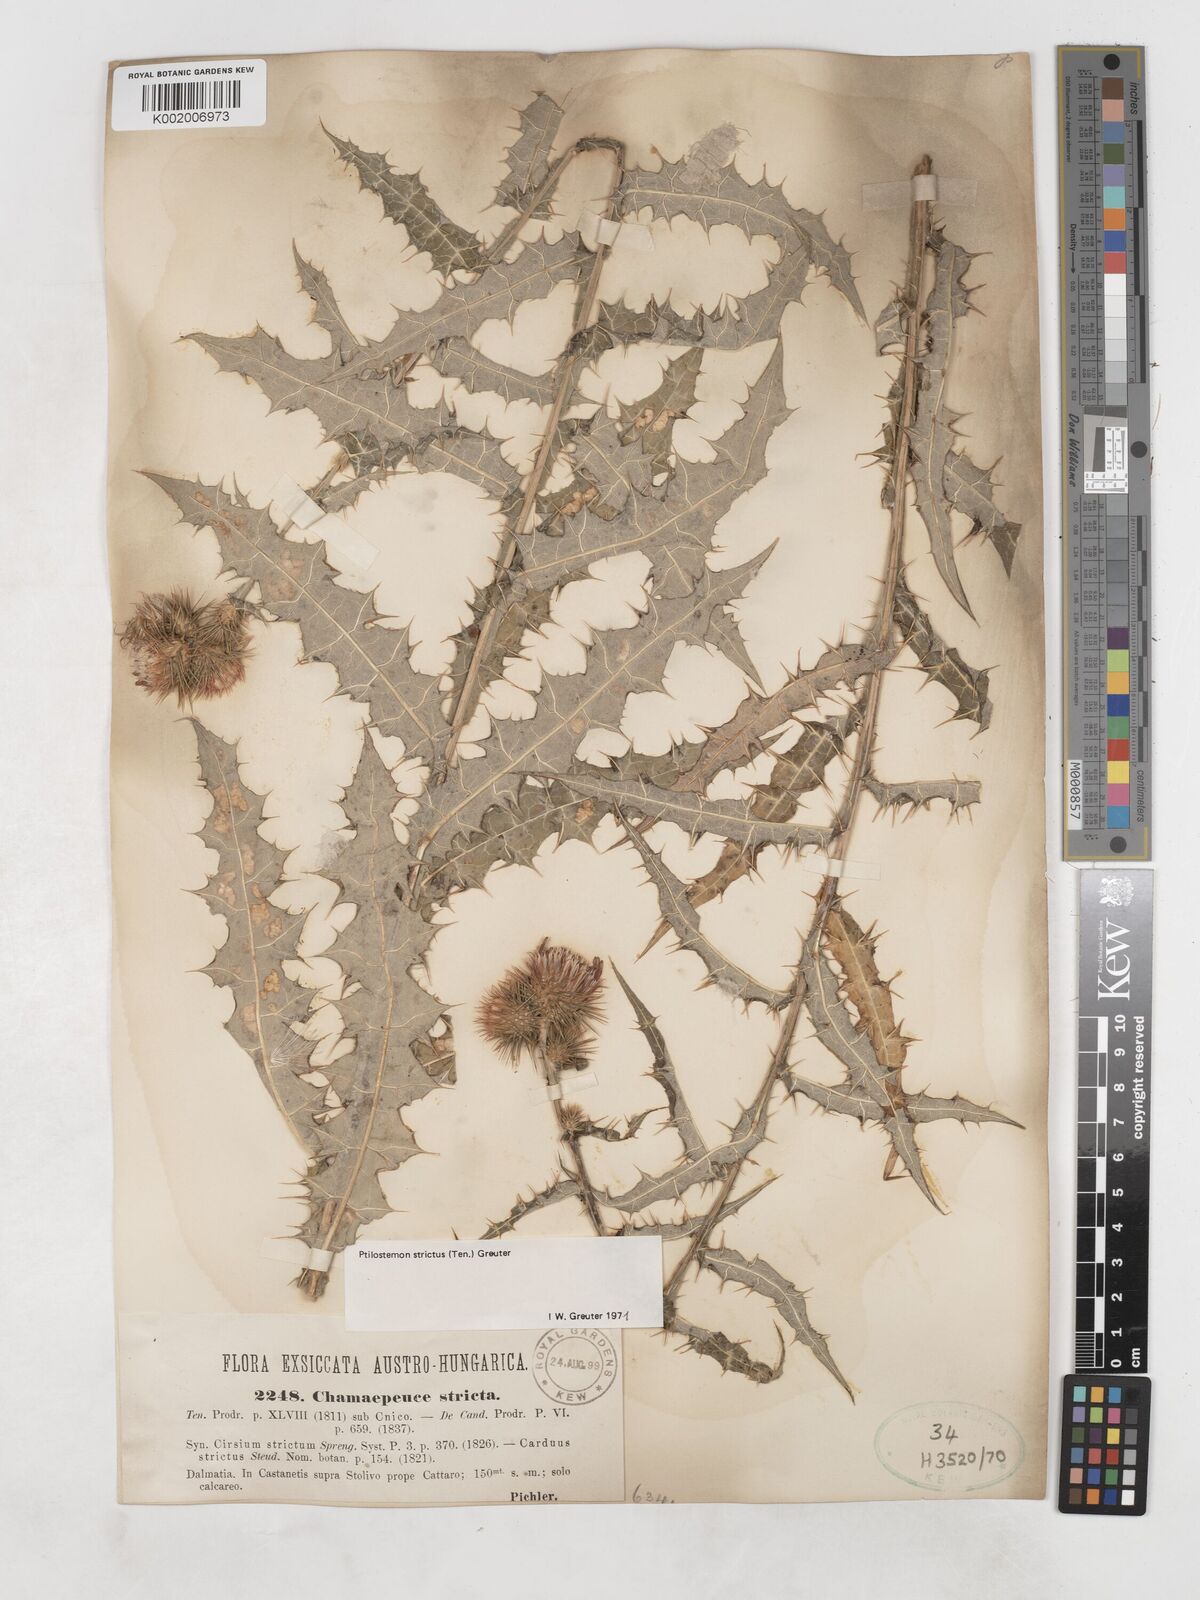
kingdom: Plantae
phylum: Tracheophyta
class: Magnoliopsida
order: Asterales
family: Asteraceae
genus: Ptilostemon
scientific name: Ptilostemon strictus
